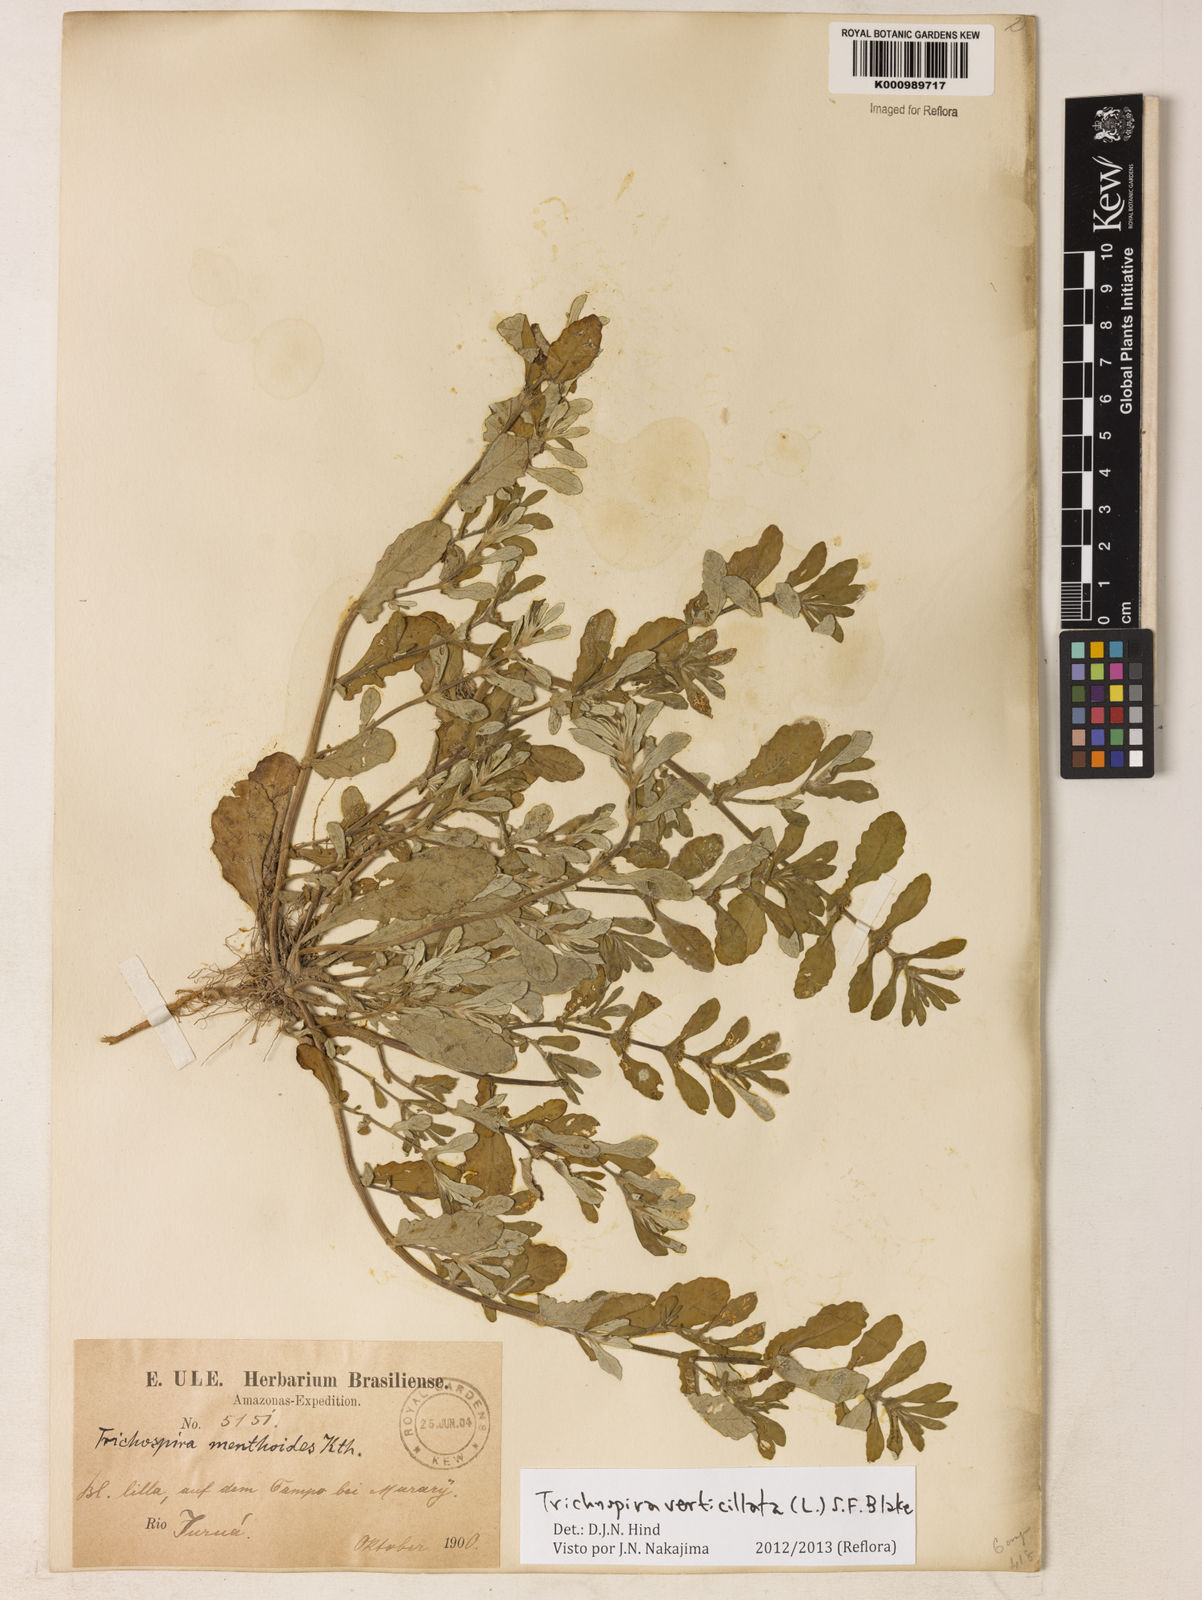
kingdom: Chromista
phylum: Ciliophora
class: Kinetofragminophora
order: Trichostomatida
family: Trichospiridae
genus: Trichospira
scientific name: Trichospira verticillata
